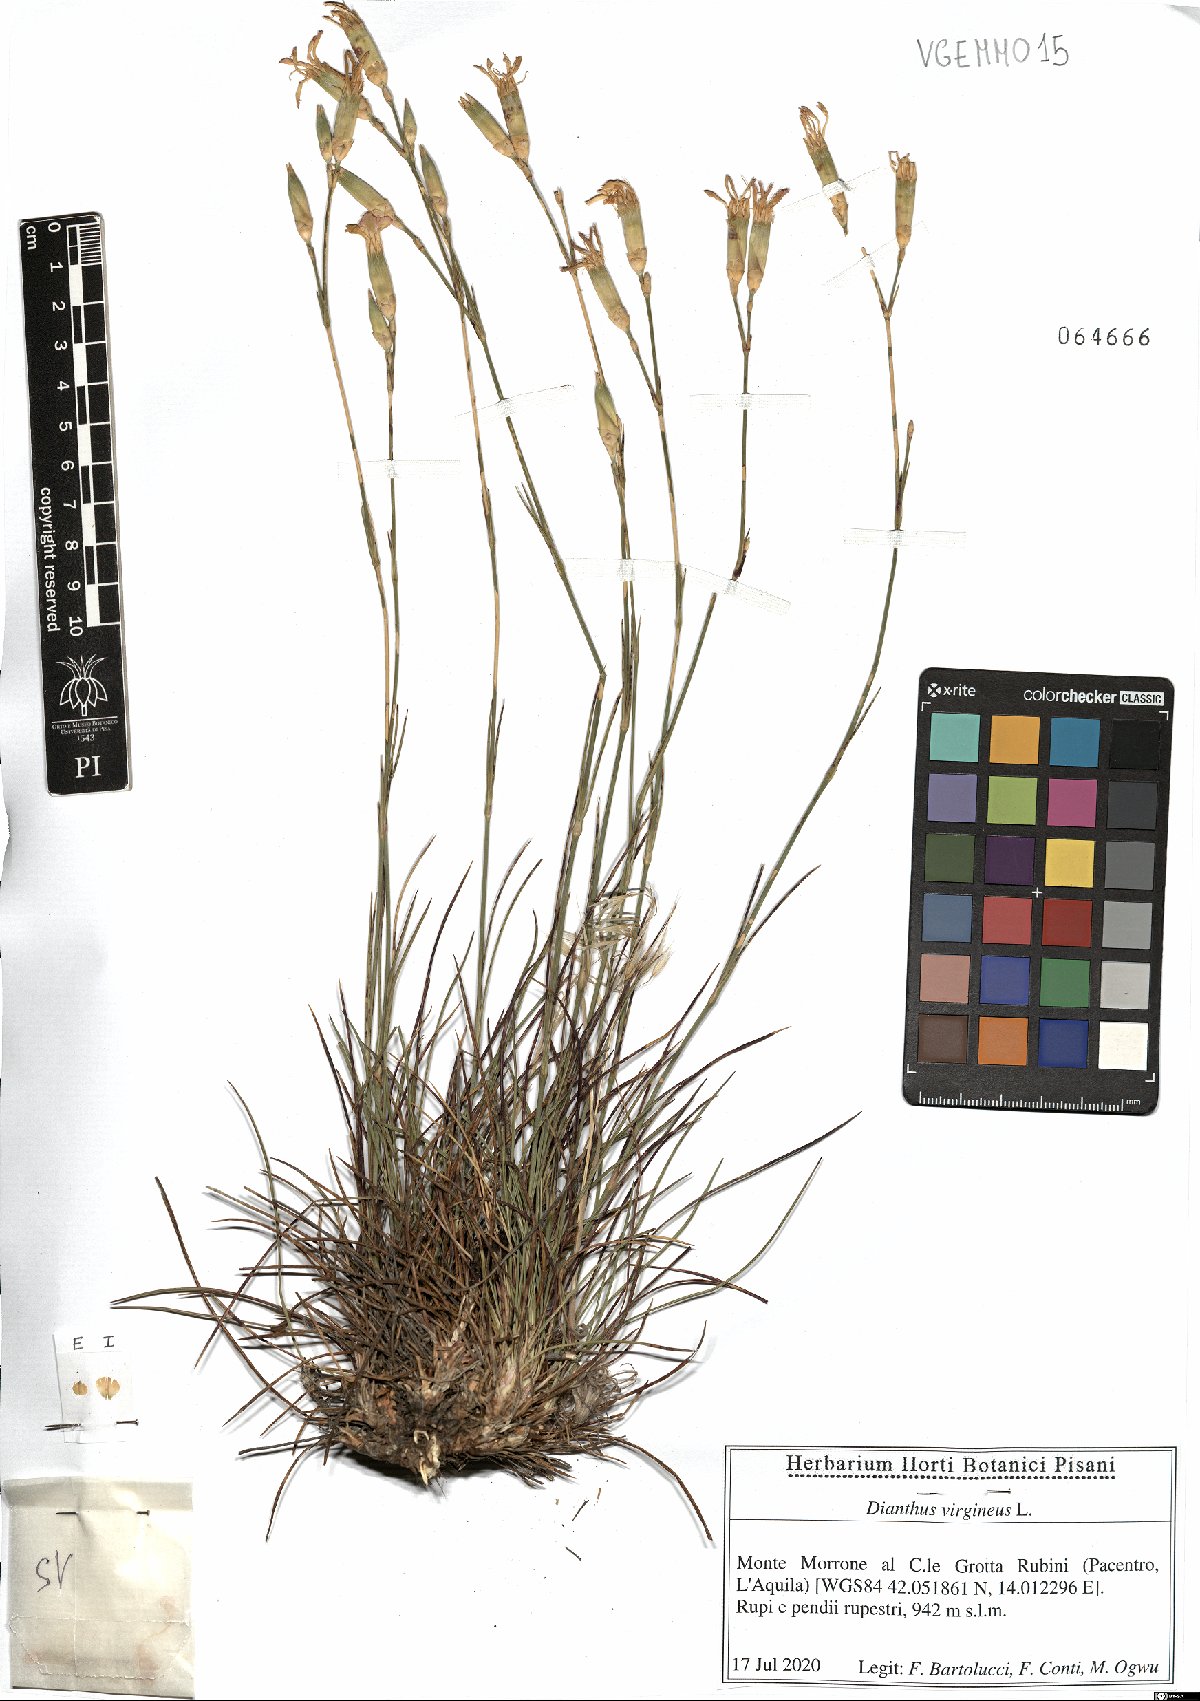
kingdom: Plantae
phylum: Tracheophyta
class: Magnoliopsida
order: Caryophyllales
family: Caryophyllaceae
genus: Dianthus
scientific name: Dianthus virgineus
